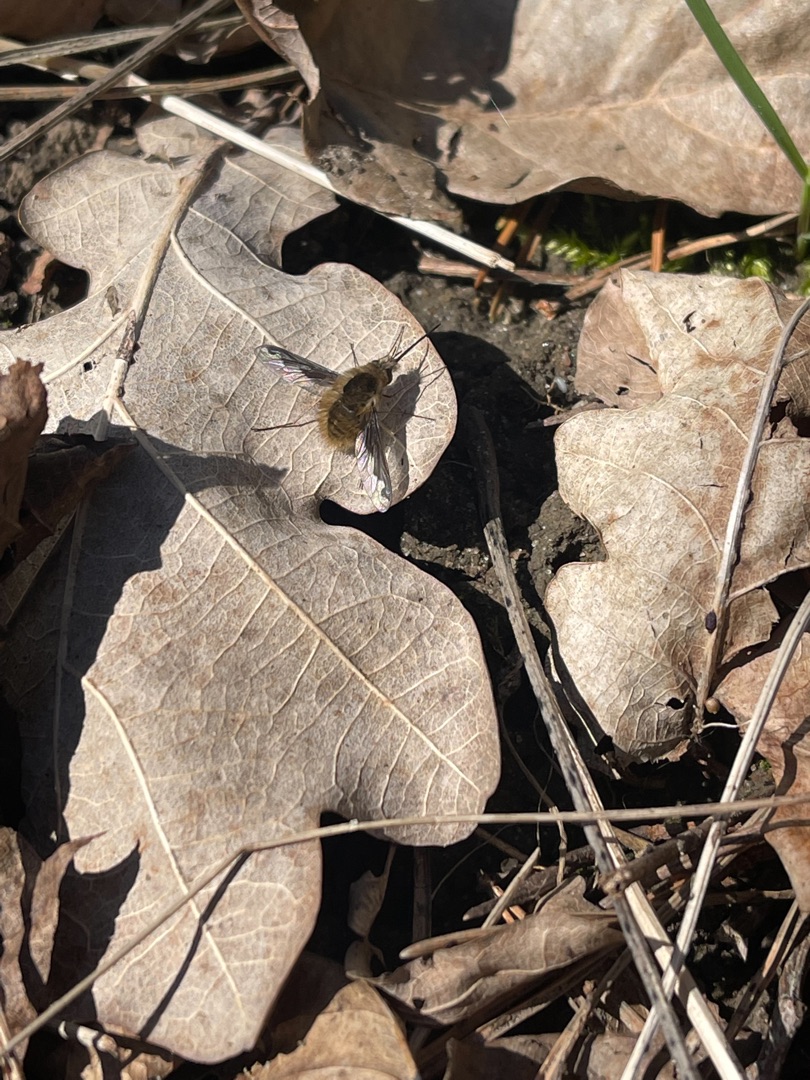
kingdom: Animalia
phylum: Arthropoda
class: Insecta
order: Diptera
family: Bombyliidae
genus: Bombylius
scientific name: Bombylius major
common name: Stor humleflue
